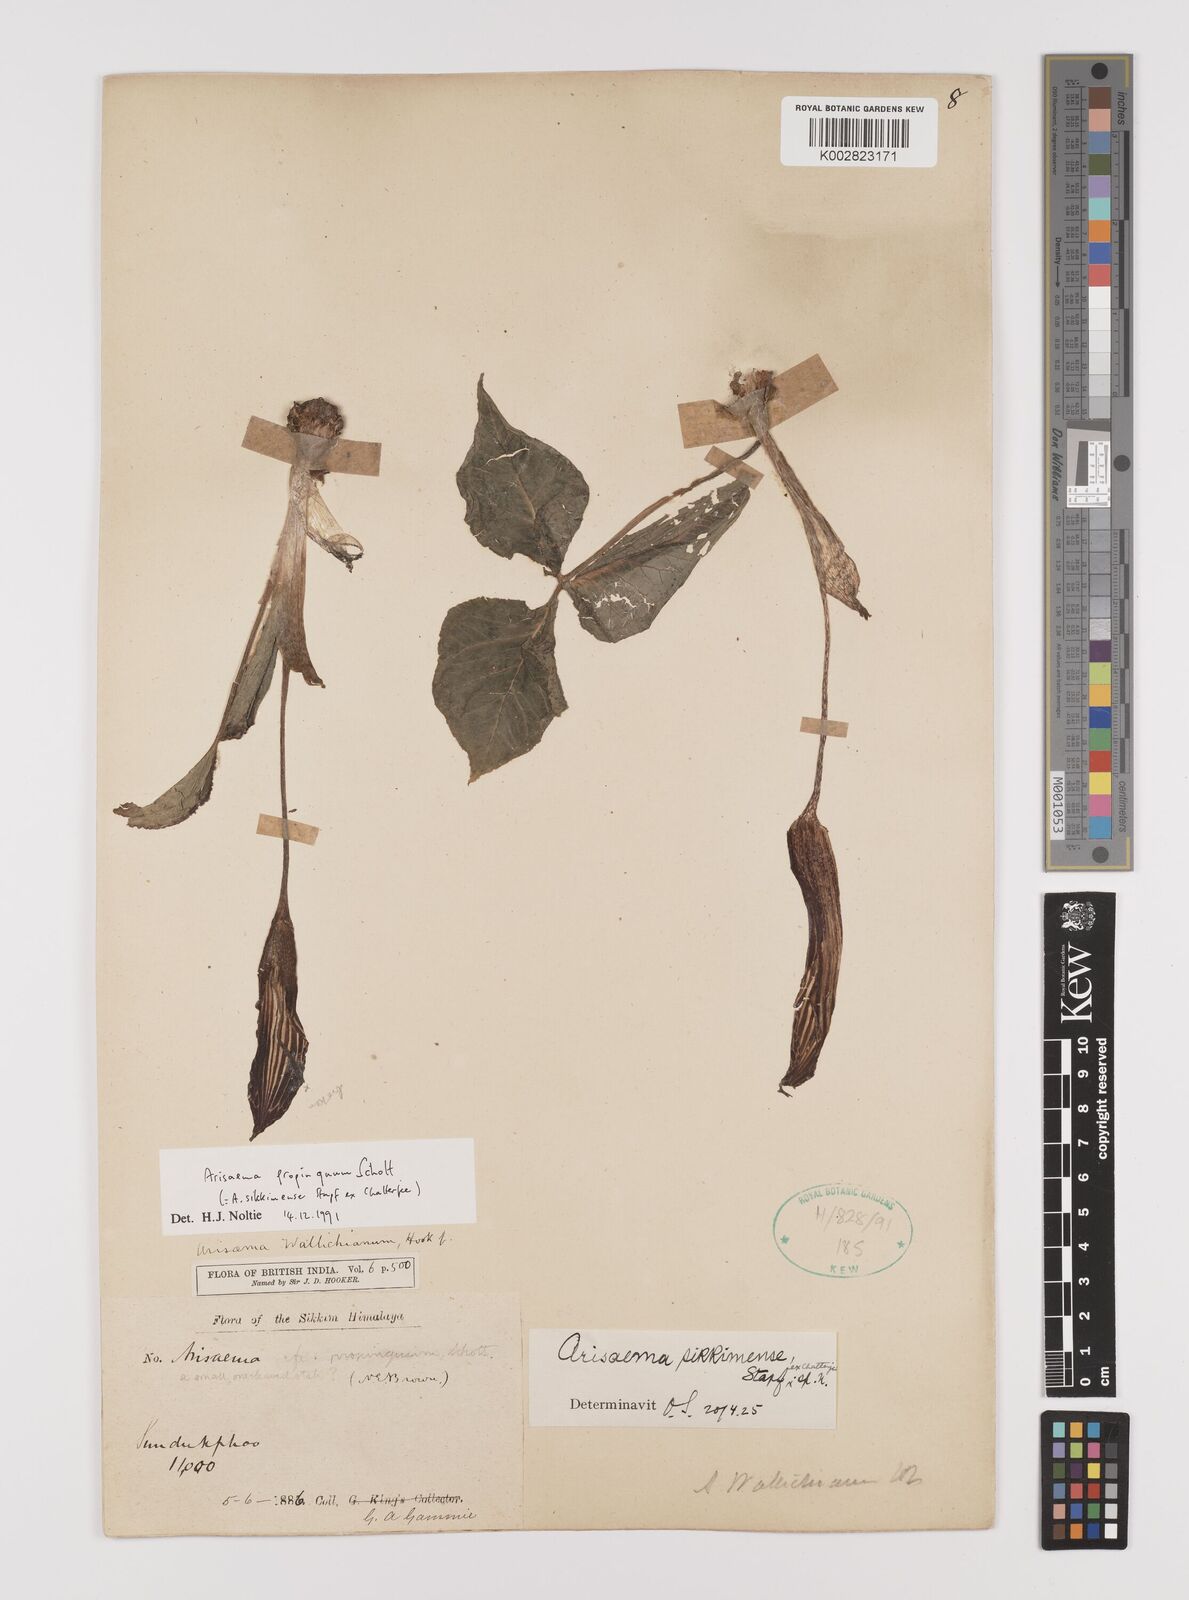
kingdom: Plantae
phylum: Tracheophyta
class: Liliopsida
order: Alismatales
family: Araceae
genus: Arisaema
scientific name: Arisaema propinquum
